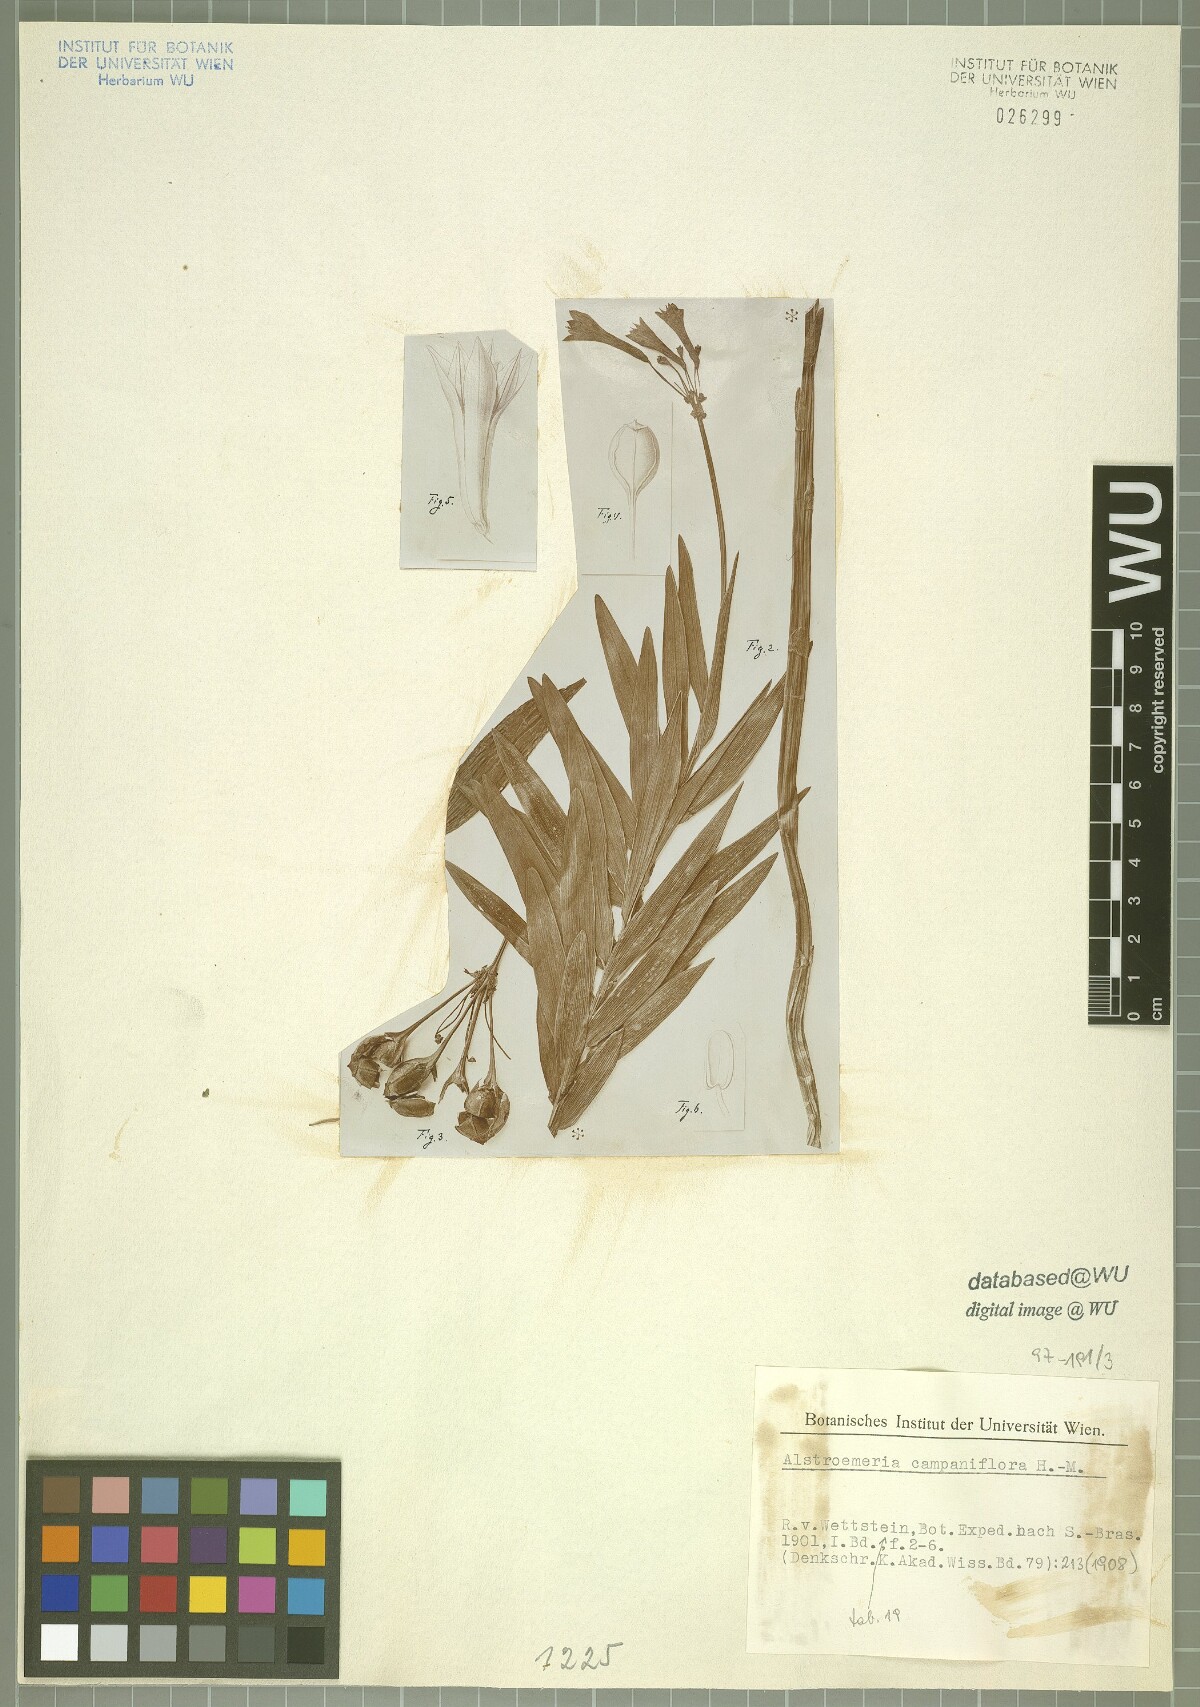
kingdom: Plantae
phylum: Tracheophyta
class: Liliopsida
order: Liliales
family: Alstroemeriaceae
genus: Alstroemeria
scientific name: Alstroemeria isabelleana
